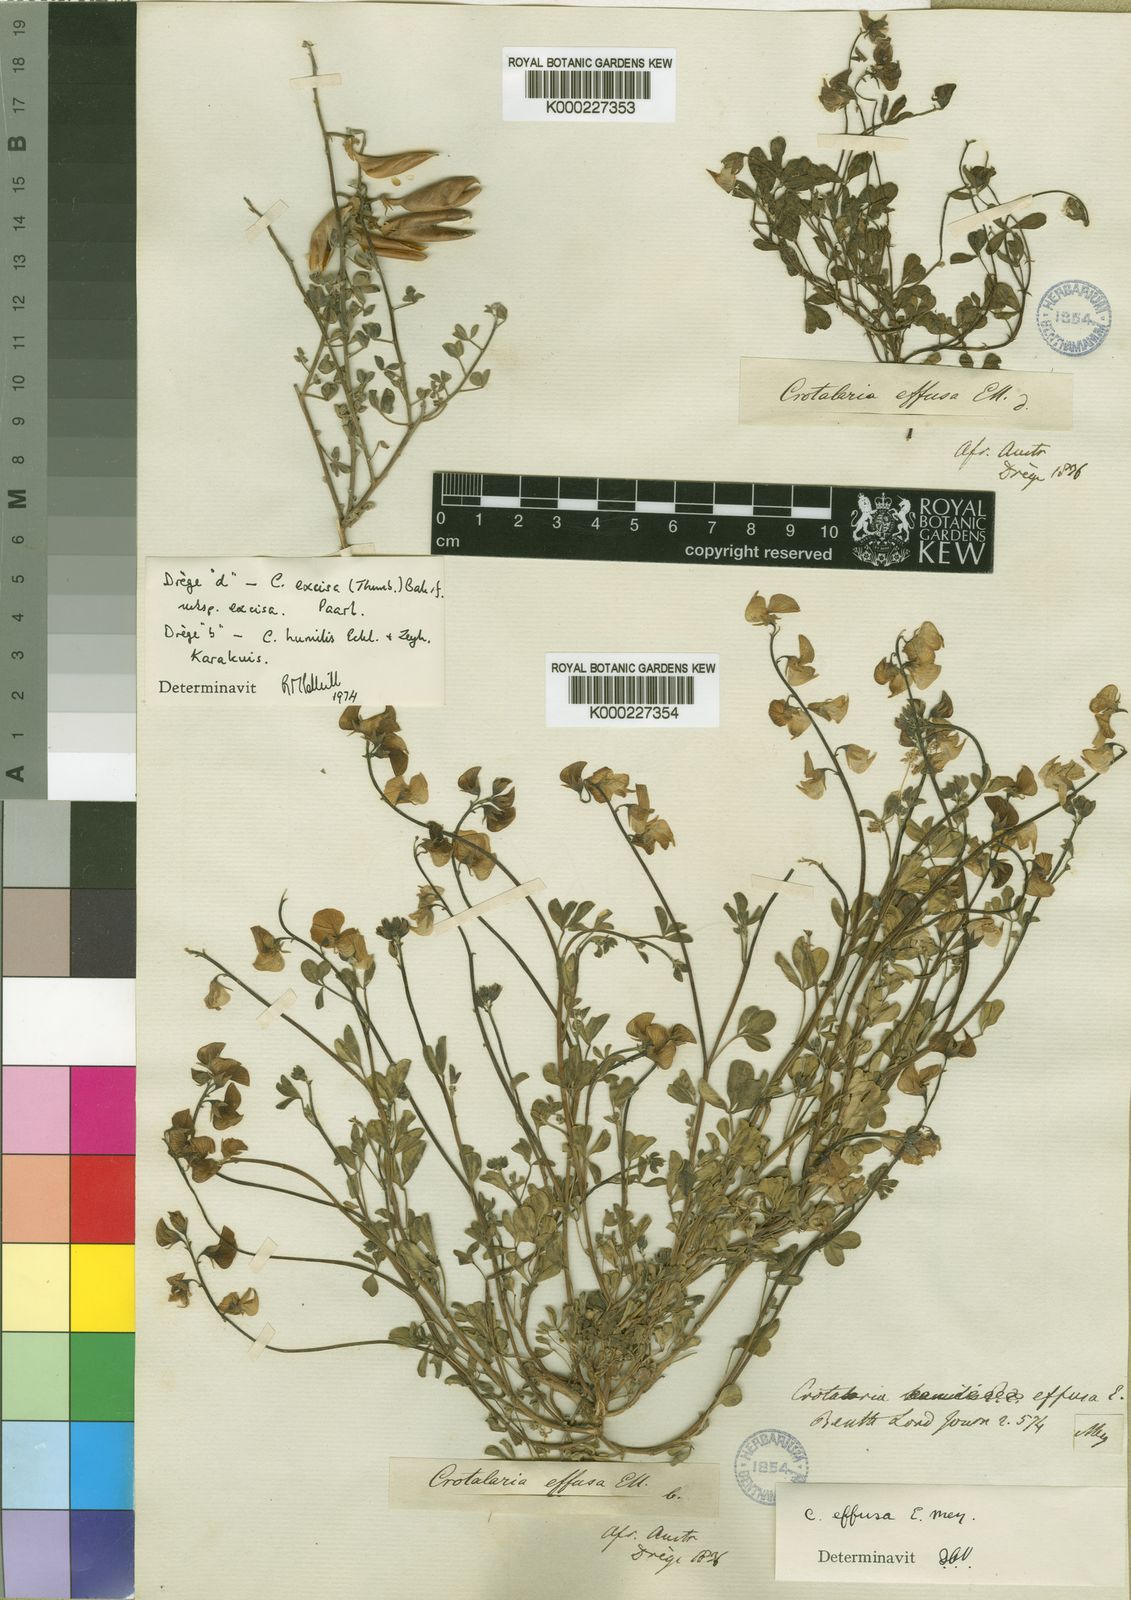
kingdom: Plantae
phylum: Tracheophyta
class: Magnoliopsida
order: Fabales
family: Fabaceae
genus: Crotalaria
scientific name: Crotalaria humilis
